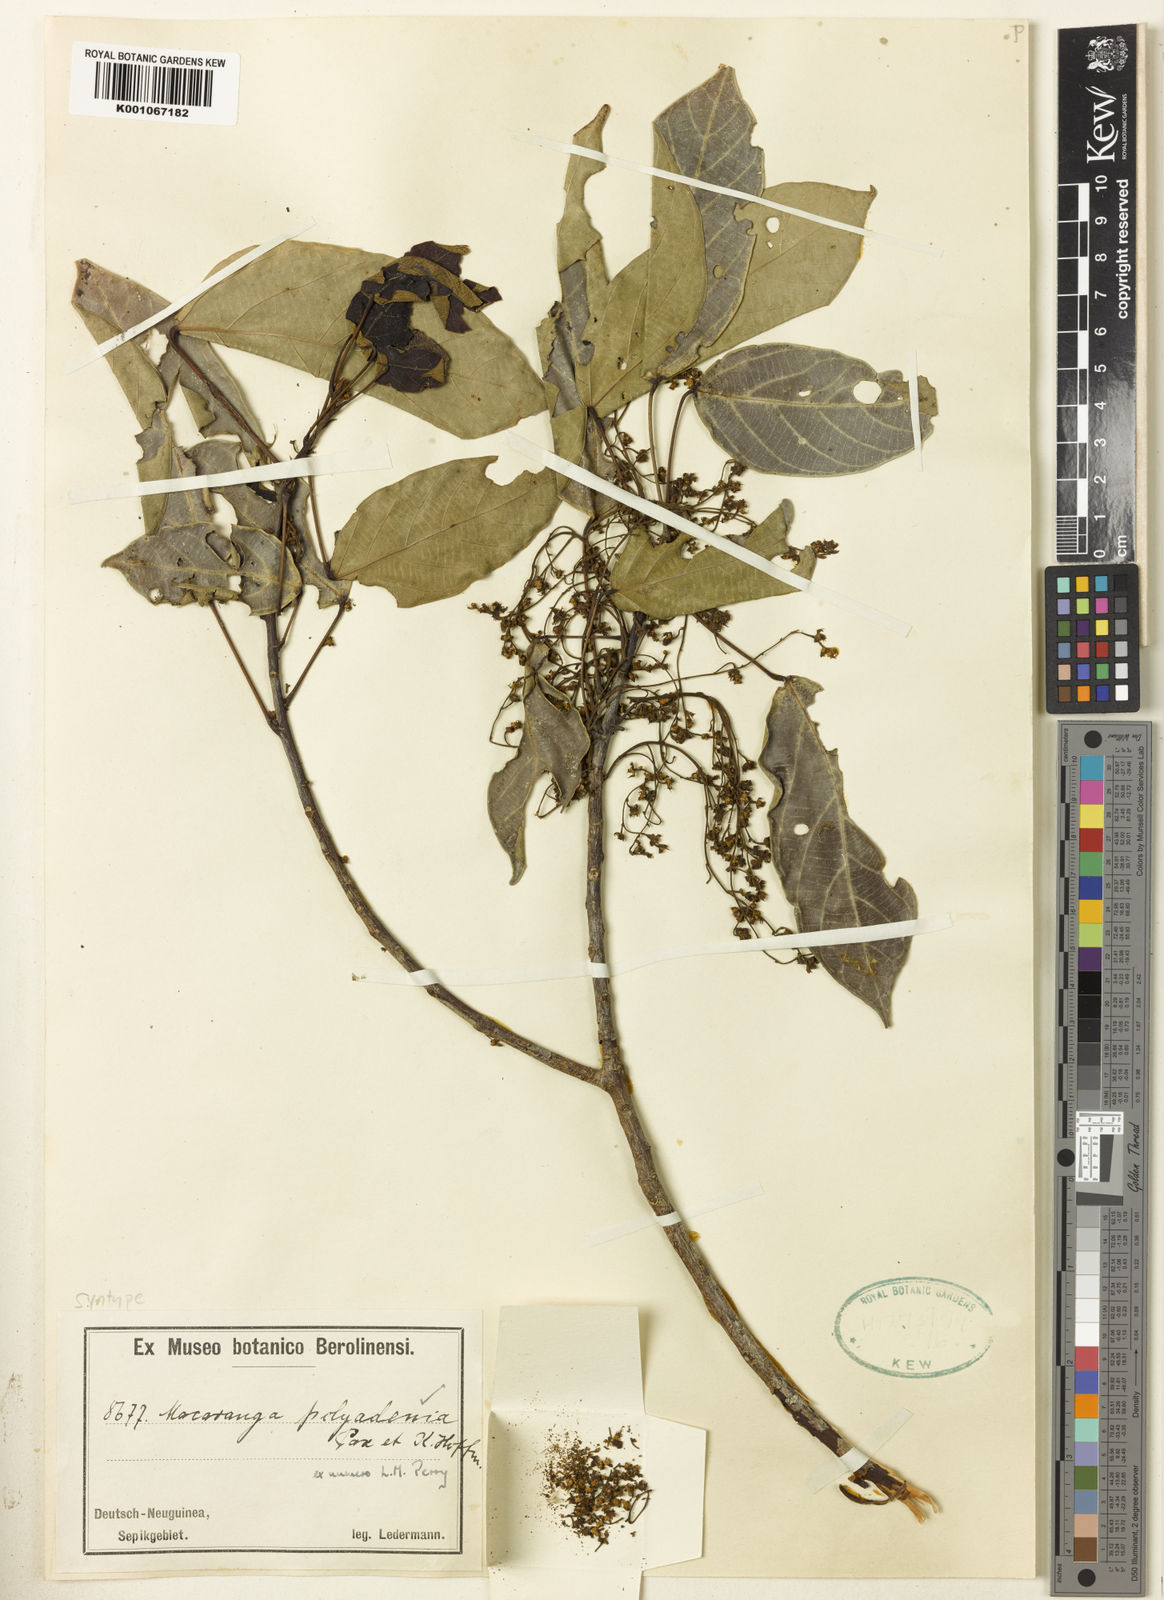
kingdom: Plantae
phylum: Tracheophyta
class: Magnoliopsida
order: Malpighiales
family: Euphorbiaceae
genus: Macaranga
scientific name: Macaranga polyadenia
